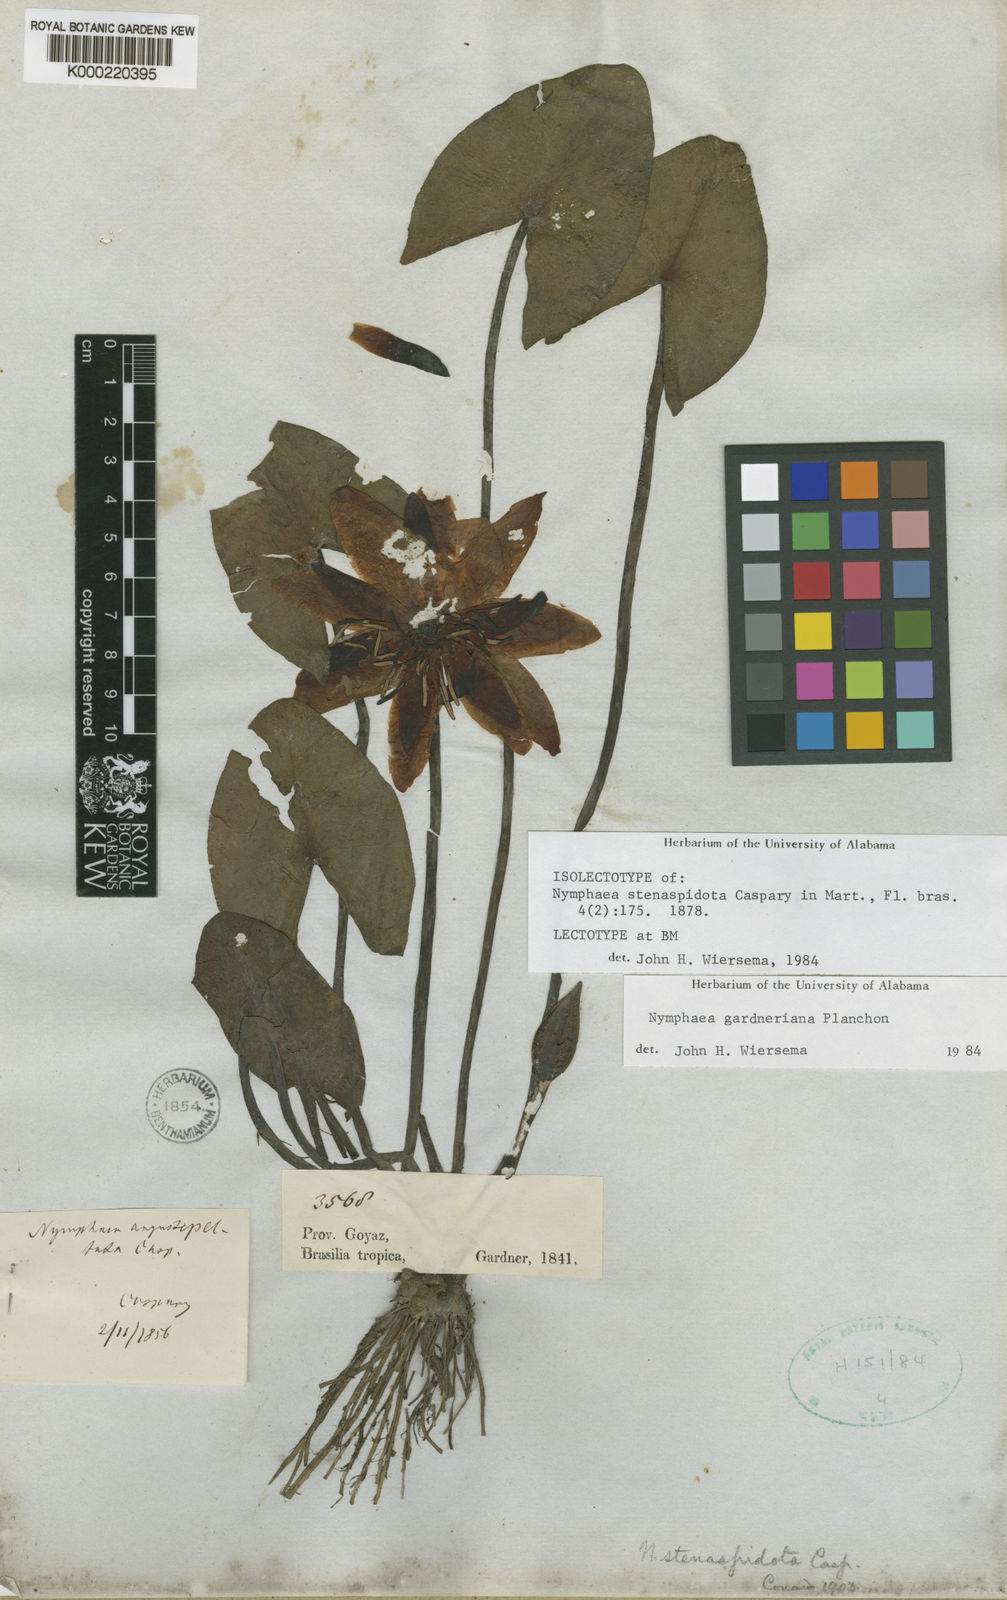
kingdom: Plantae
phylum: Tracheophyta
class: Magnoliopsida
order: Nymphaeales
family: Nymphaeaceae
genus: Nymphaea
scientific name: Nymphaea gardneriana
